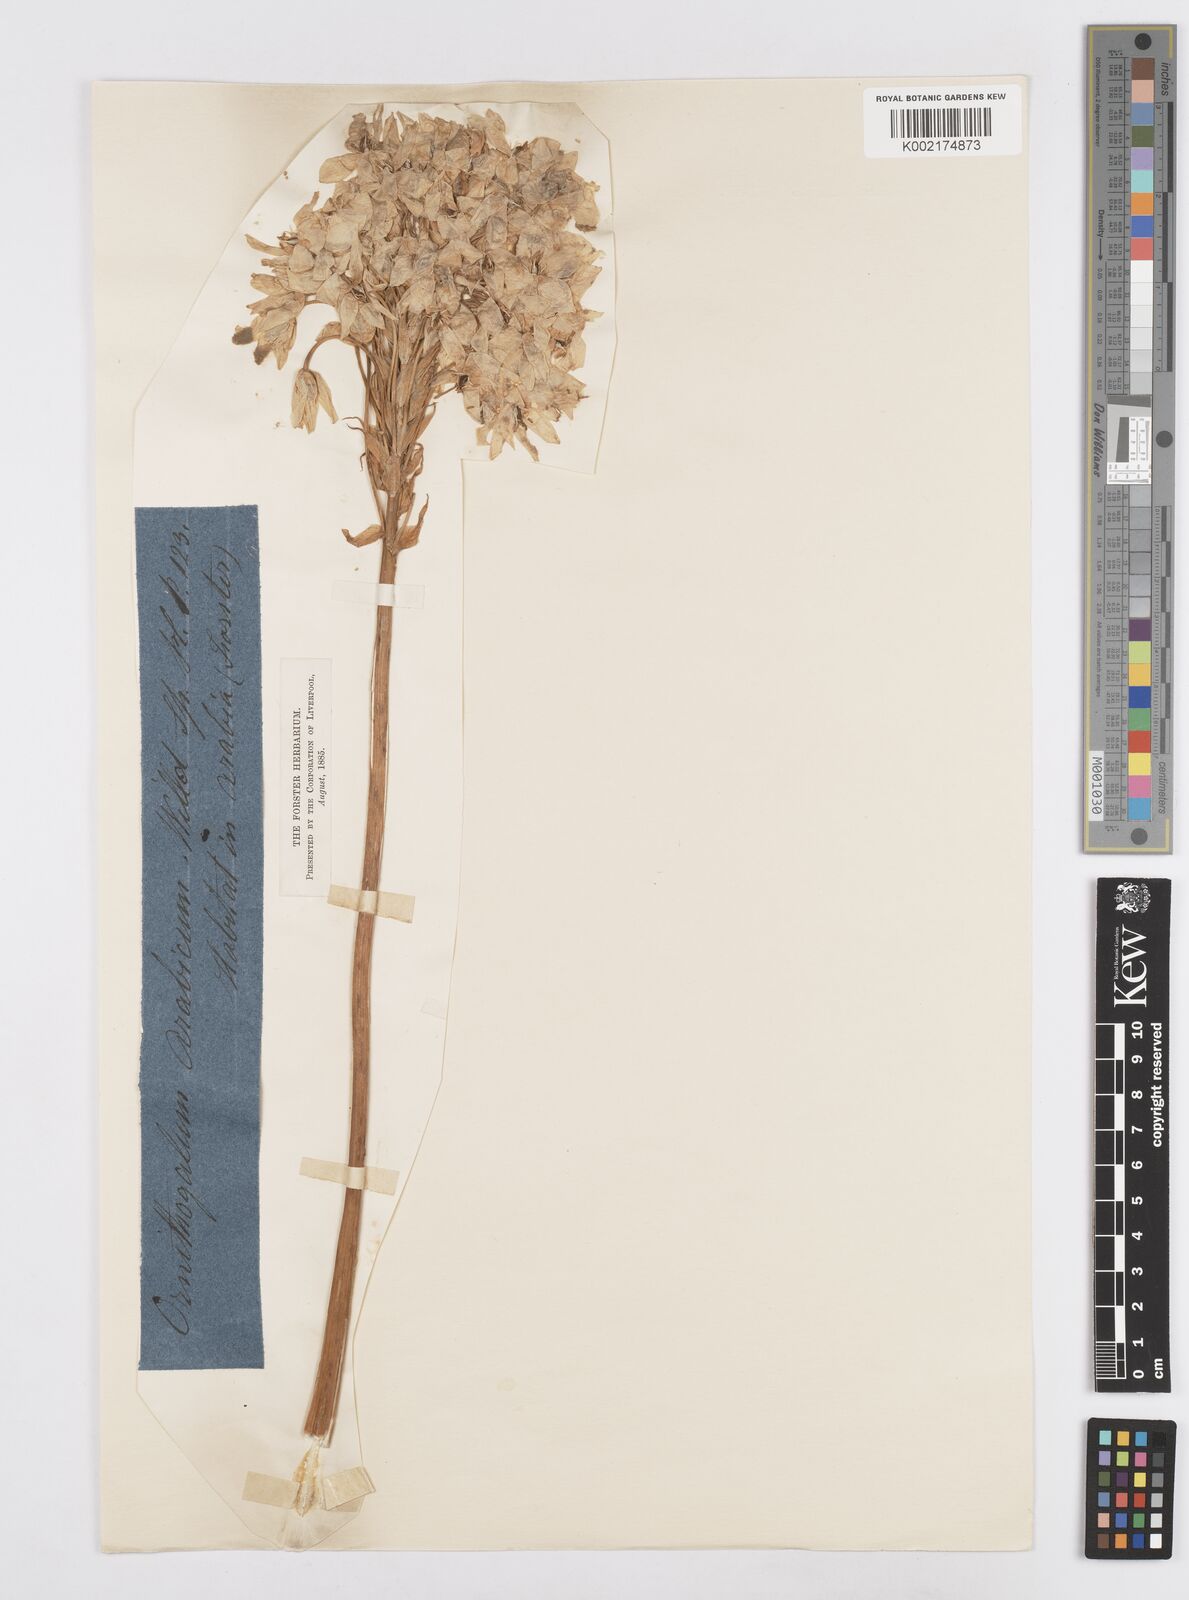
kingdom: Plantae
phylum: Tracheophyta
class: Liliopsida
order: Asparagales
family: Asparagaceae
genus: Ornithogalum
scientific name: Ornithogalum arabicum
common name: Arabian starflower
